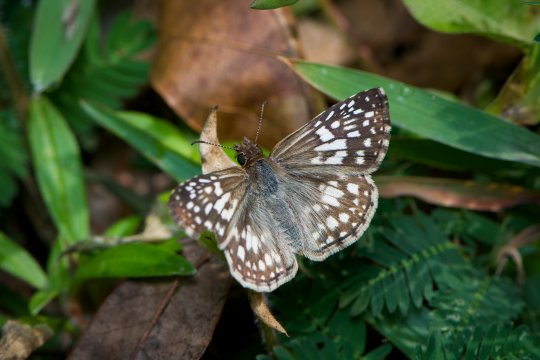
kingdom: Animalia
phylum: Arthropoda
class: Insecta
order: Lepidoptera
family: Hesperiidae
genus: Pyrgus
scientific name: Pyrgus oileus
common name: Tropical Checkered-Skipper
